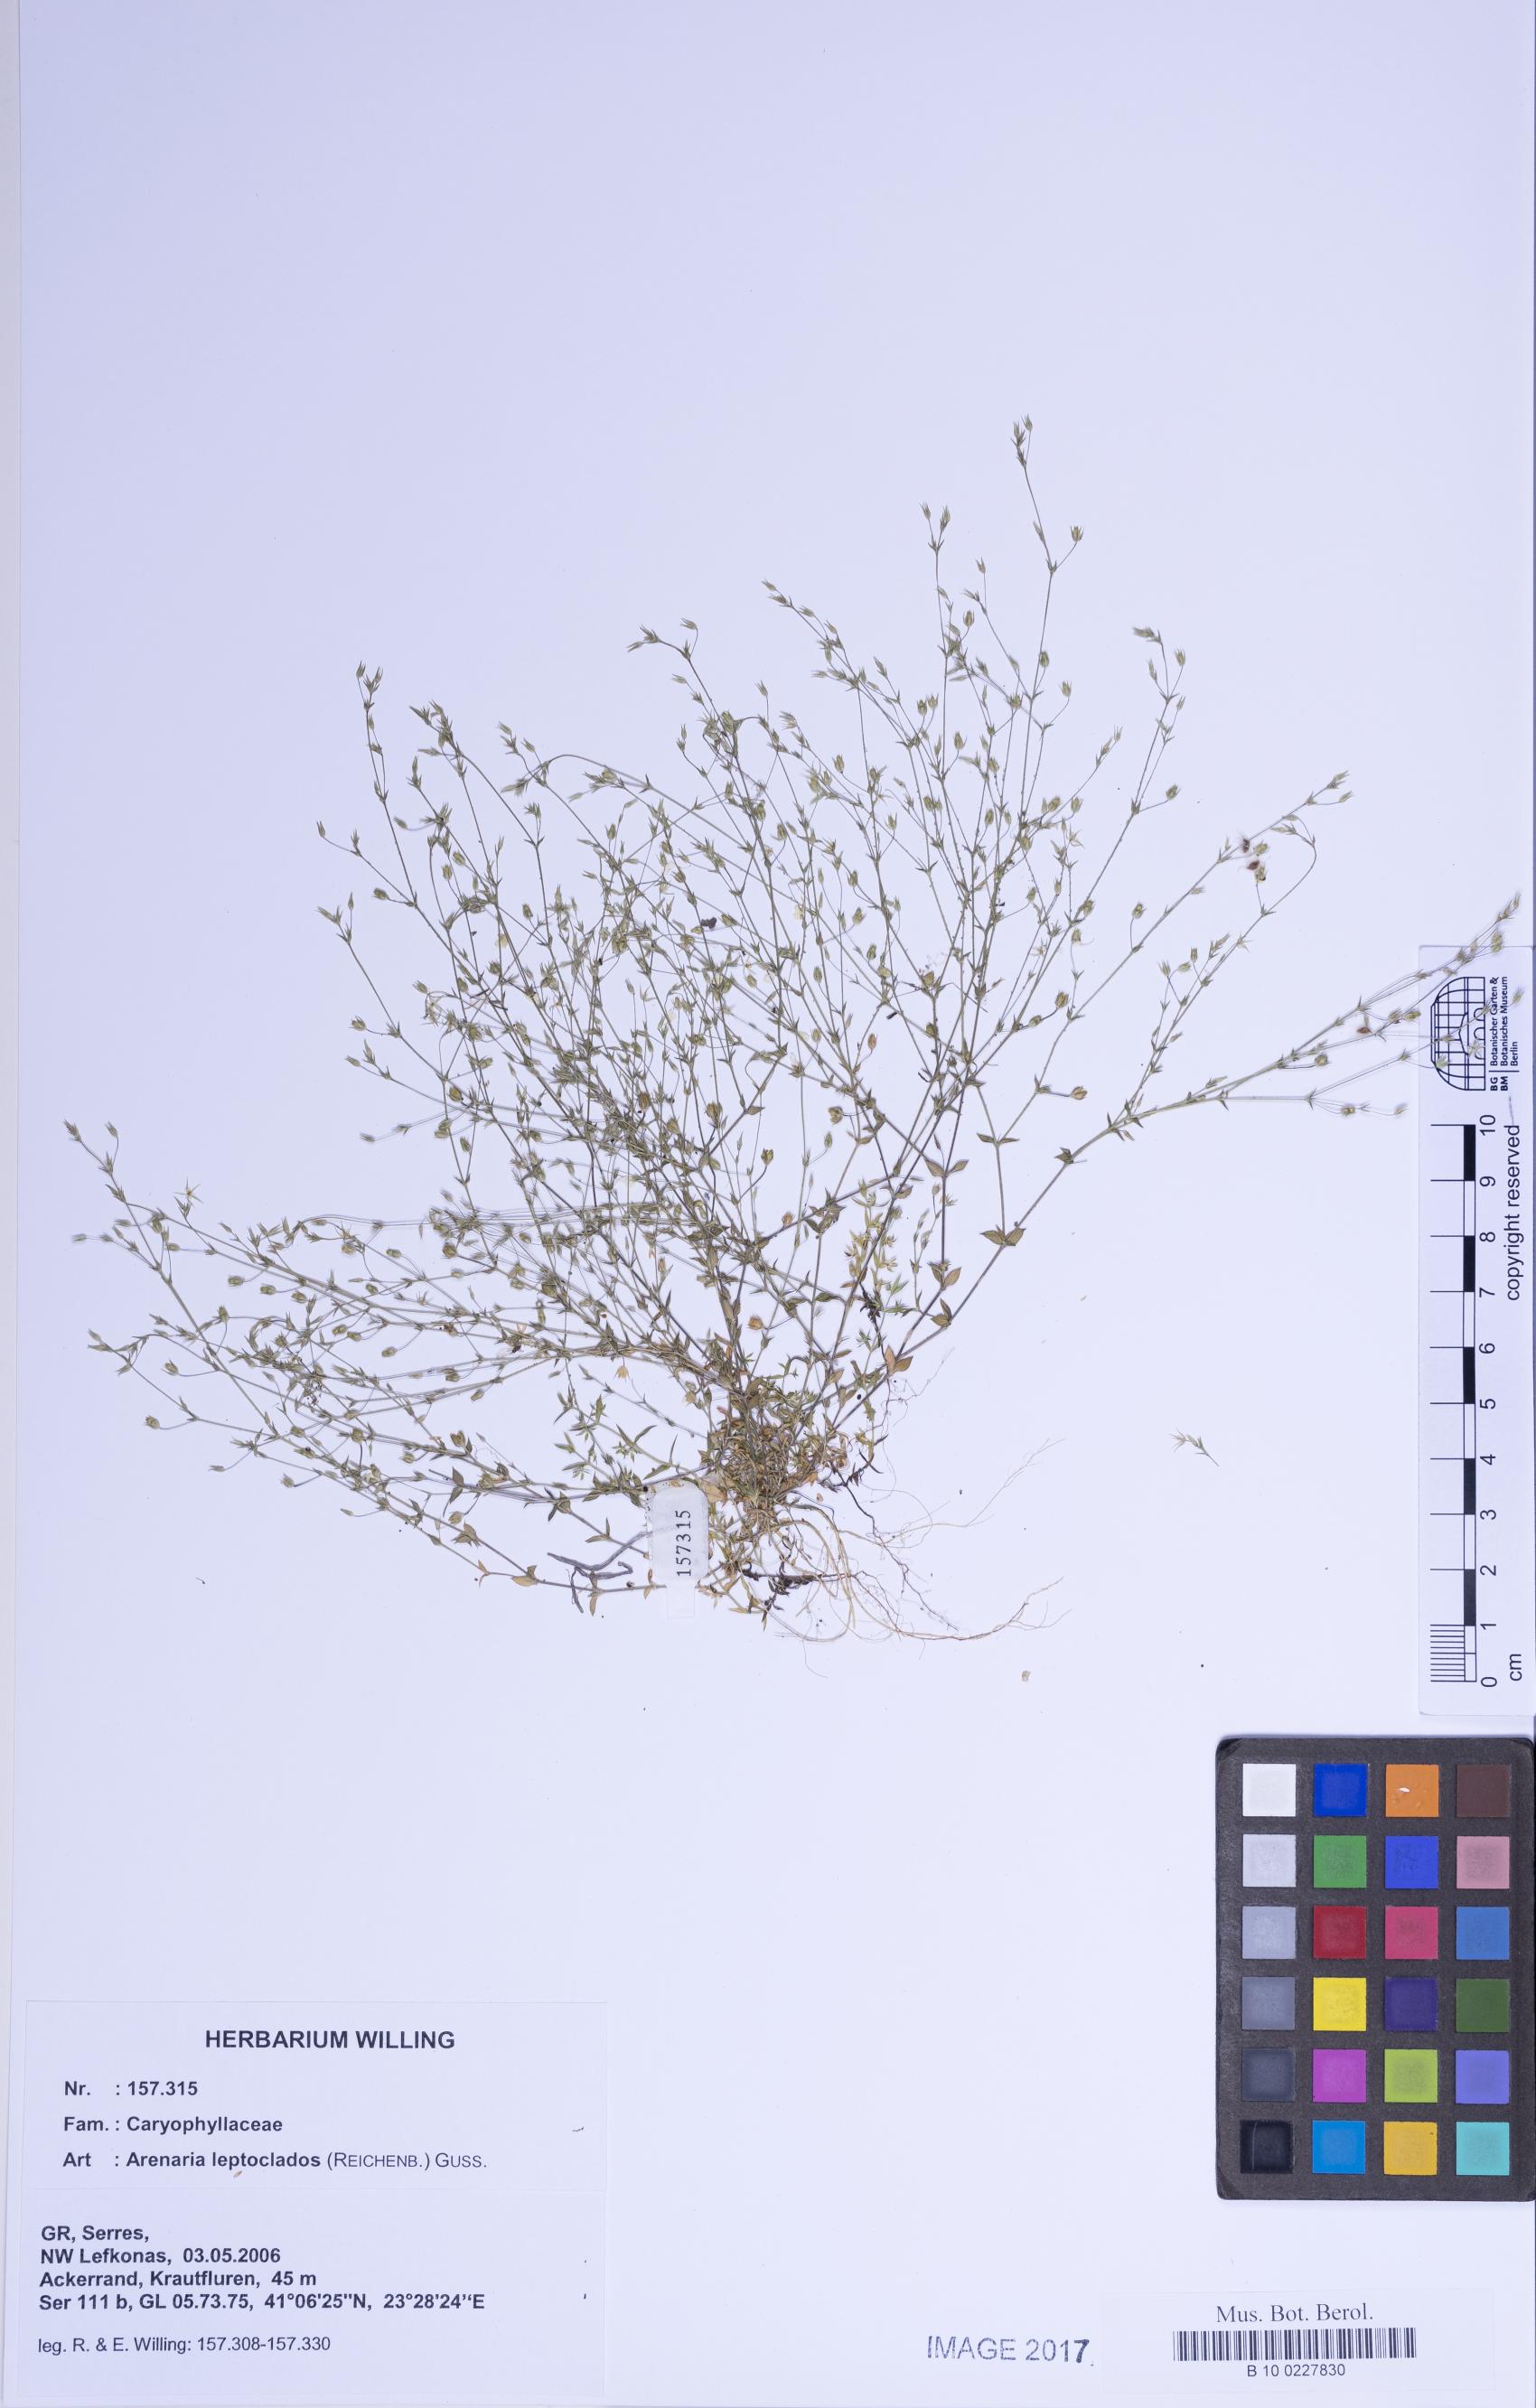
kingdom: Plantae
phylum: Tracheophyta
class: Magnoliopsida
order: Caryophyllales
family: Caryophyllaceae
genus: Arenaria
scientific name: Arenaria leptoclados
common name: Thyme-leaved sandwort
